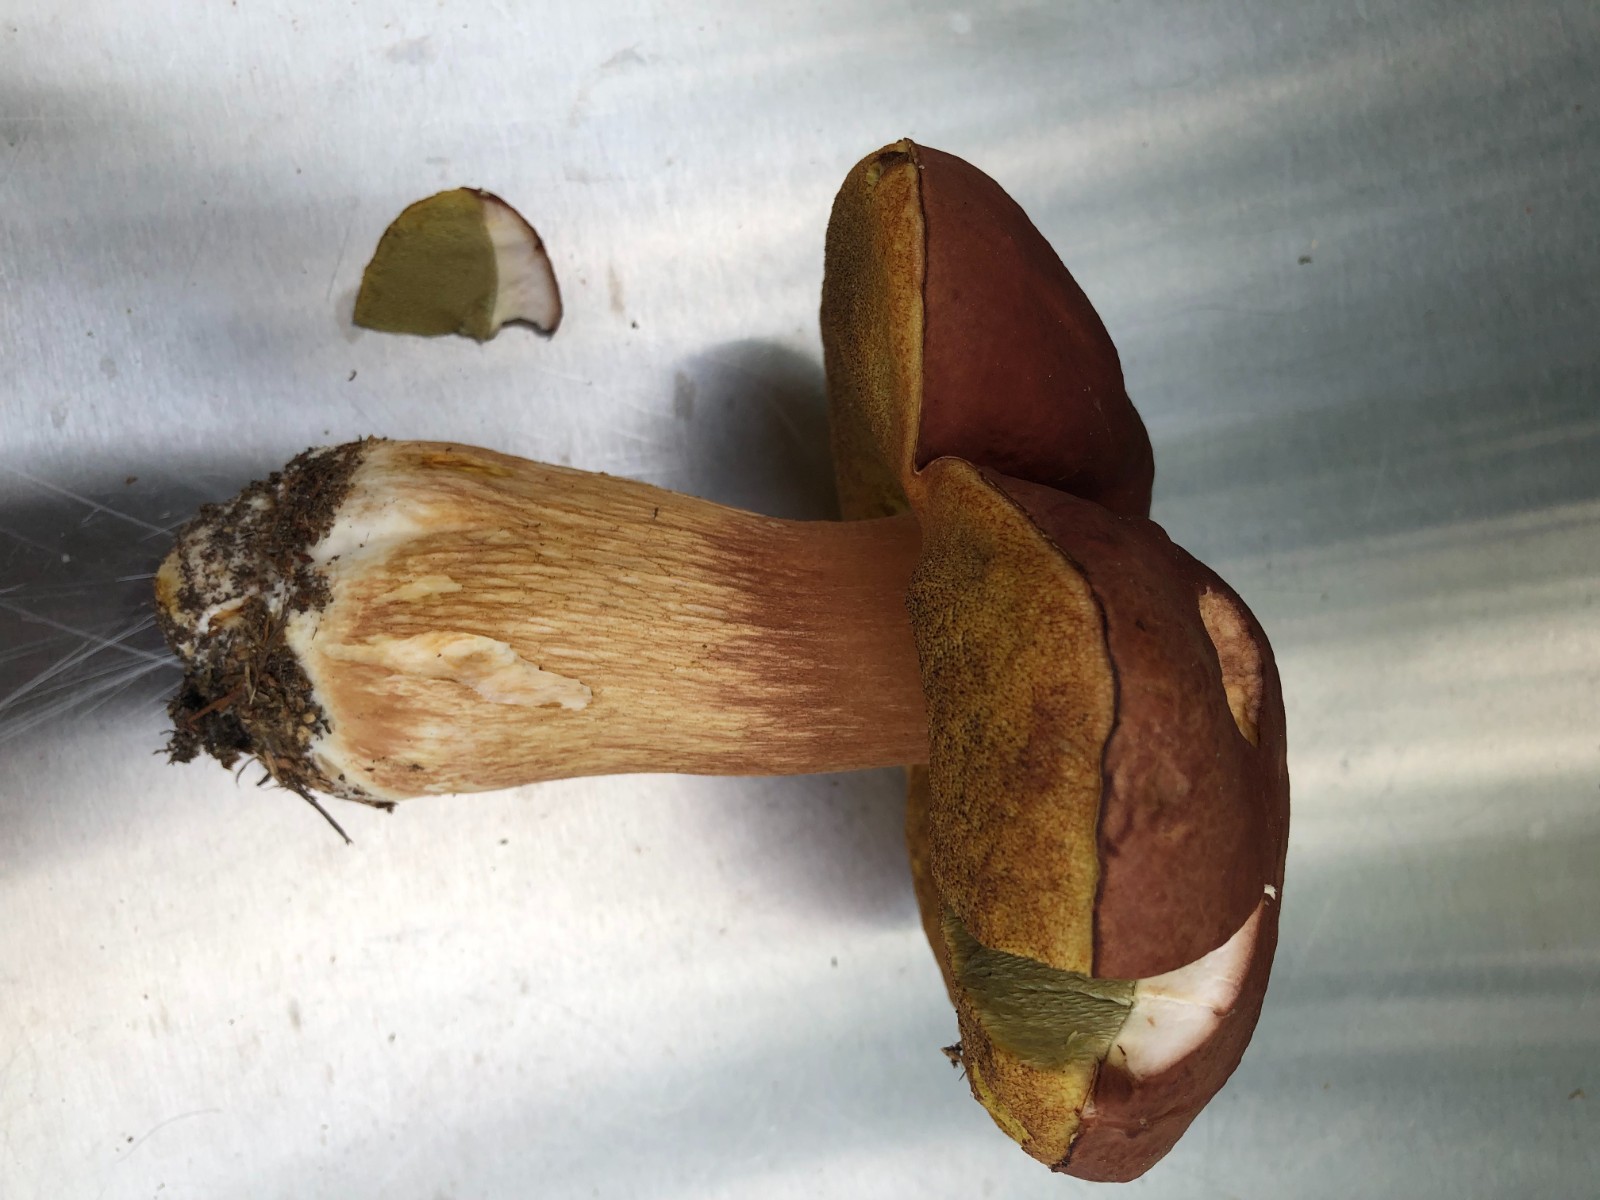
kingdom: Fungi
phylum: Basidiomycota
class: Agaricomycetes
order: Boletales
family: Boletaceae
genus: Imleria
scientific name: Imleria badia
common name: brunstokket rørhat
